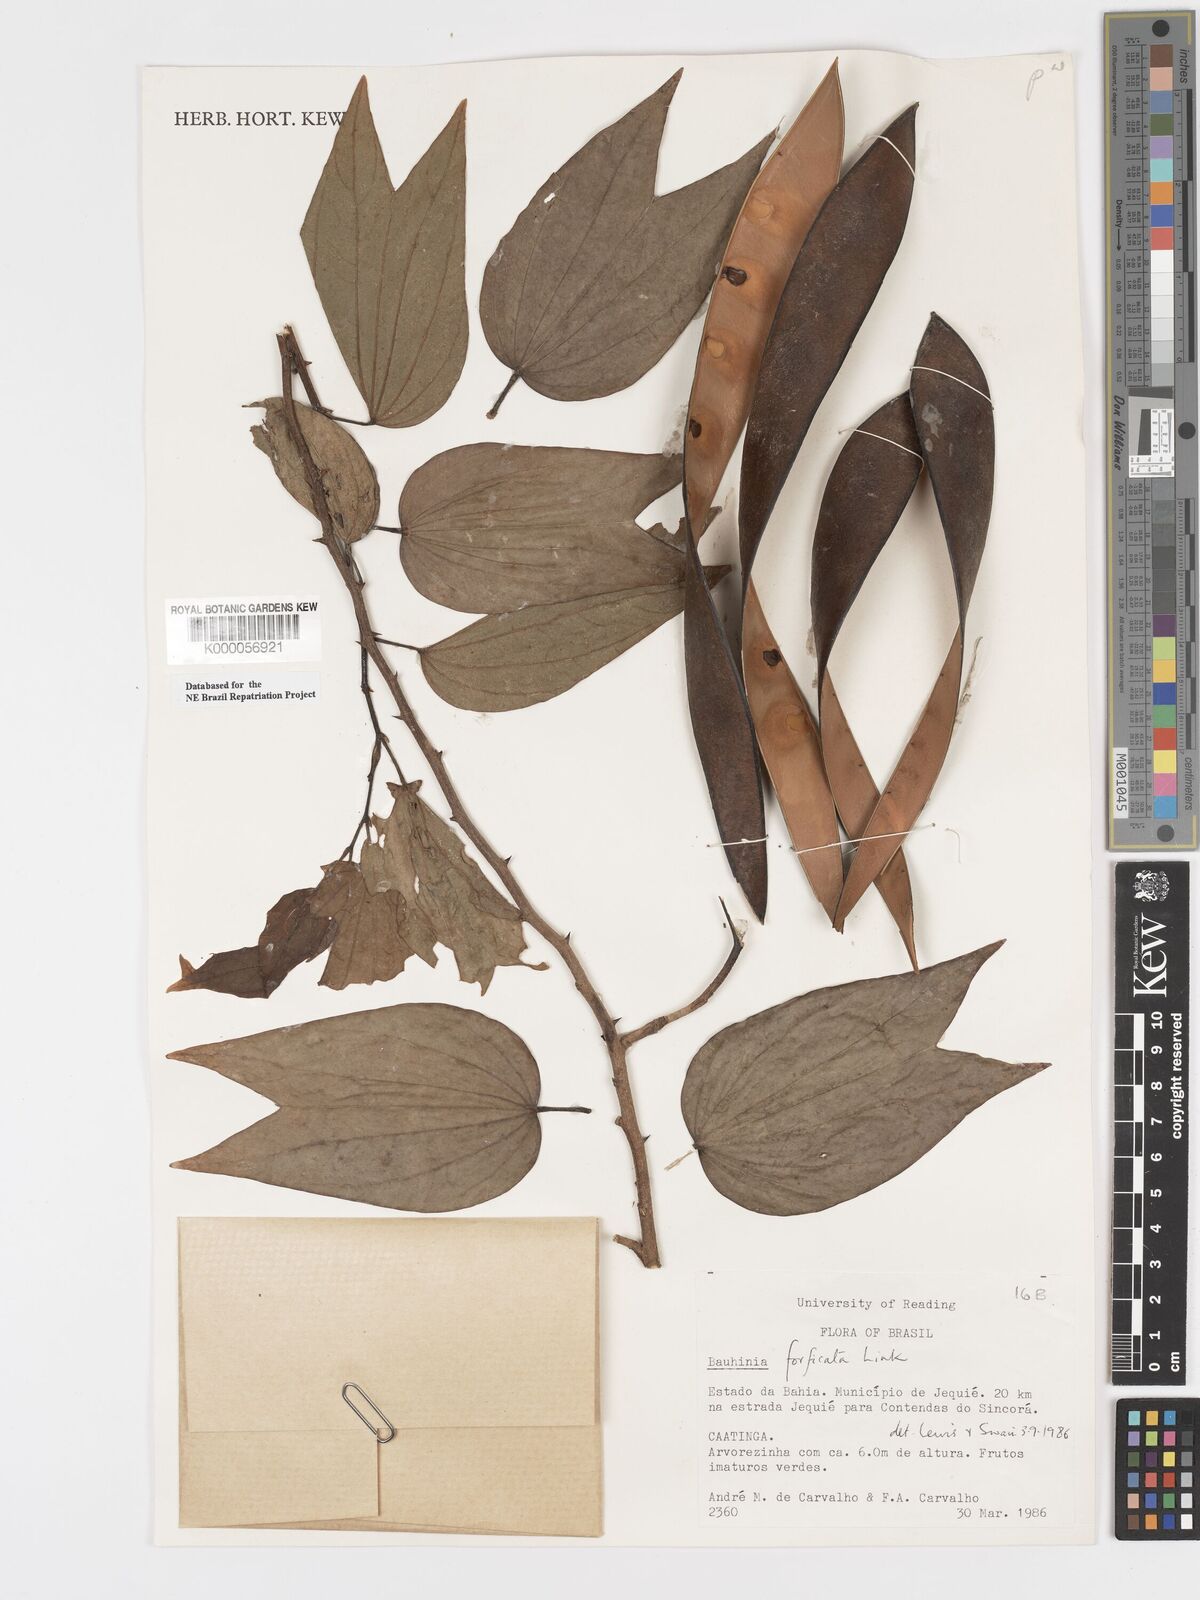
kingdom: Plantae
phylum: Tracheophyta
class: Magnoliopsida
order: Fabales
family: Fabaceae
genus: Bauhinia
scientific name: Bauhinia forficata
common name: Orchid tree
